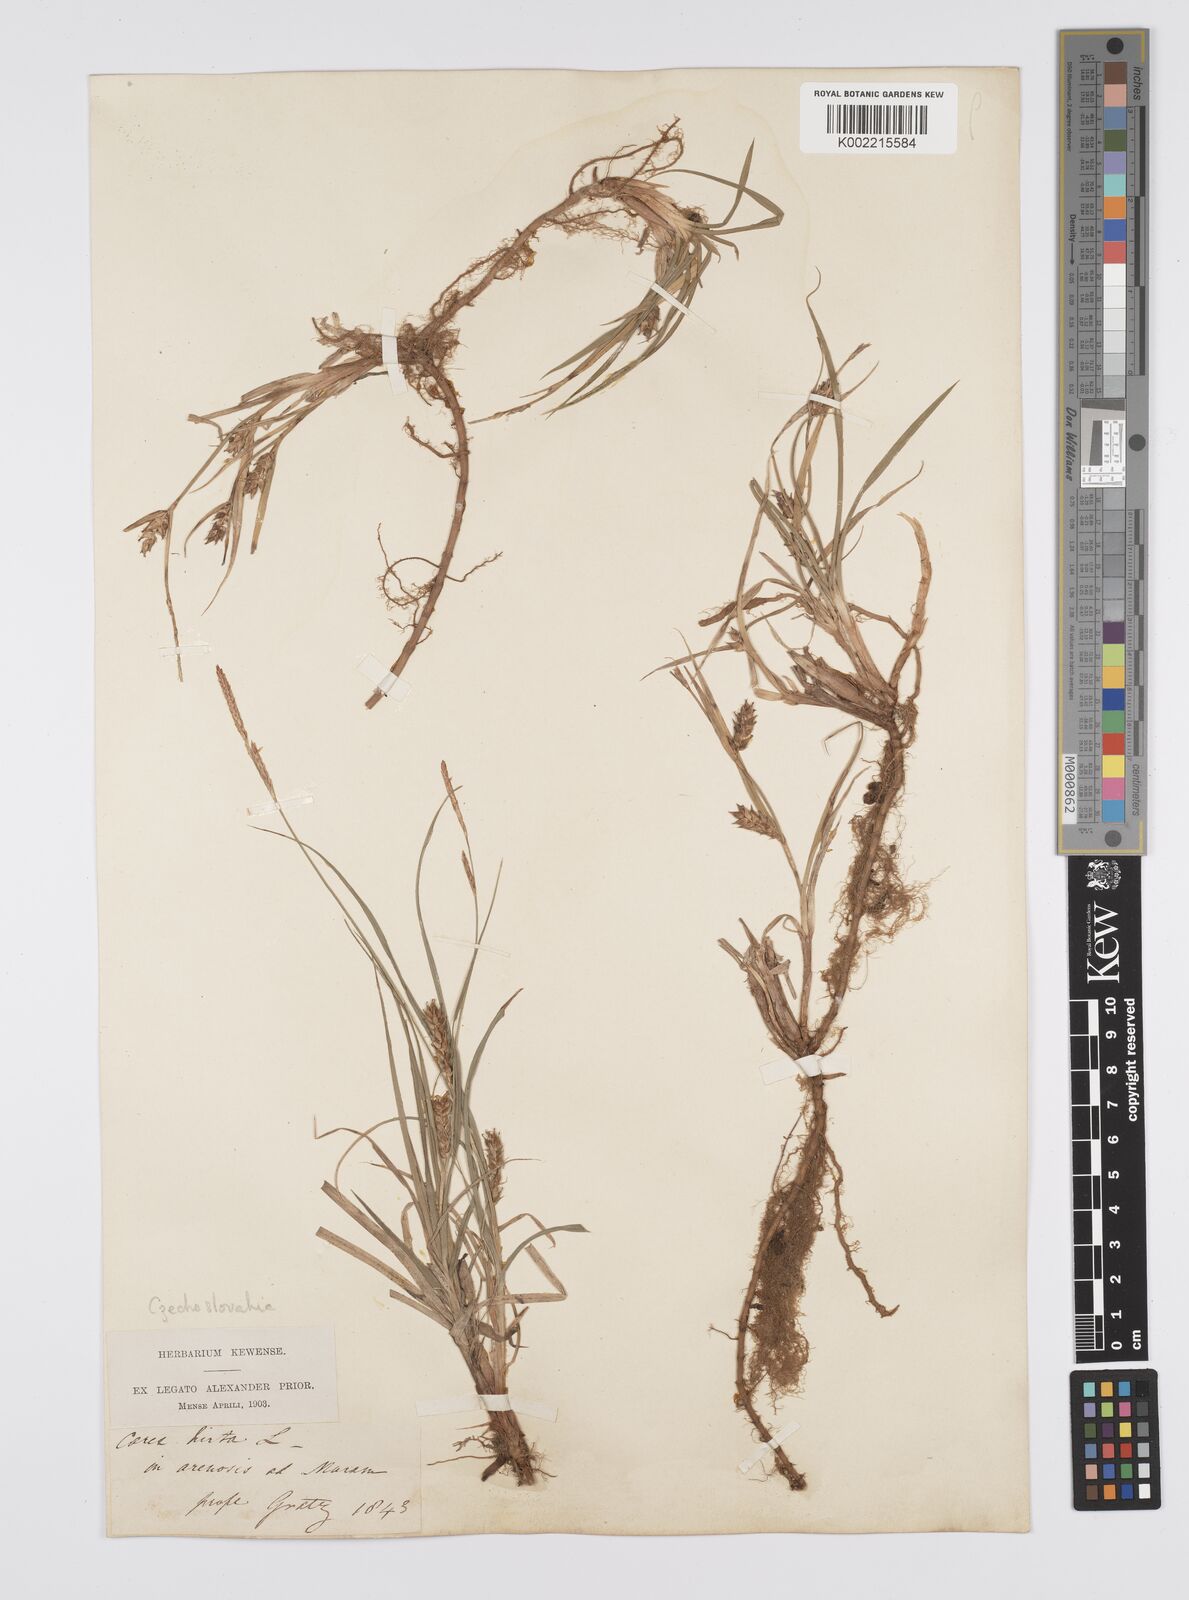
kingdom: Plantae
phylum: Tracheophyta
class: Liliopsida
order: Poales
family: Cyperaceae
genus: Carex
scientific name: Carex hirta
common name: Hairy sedge
